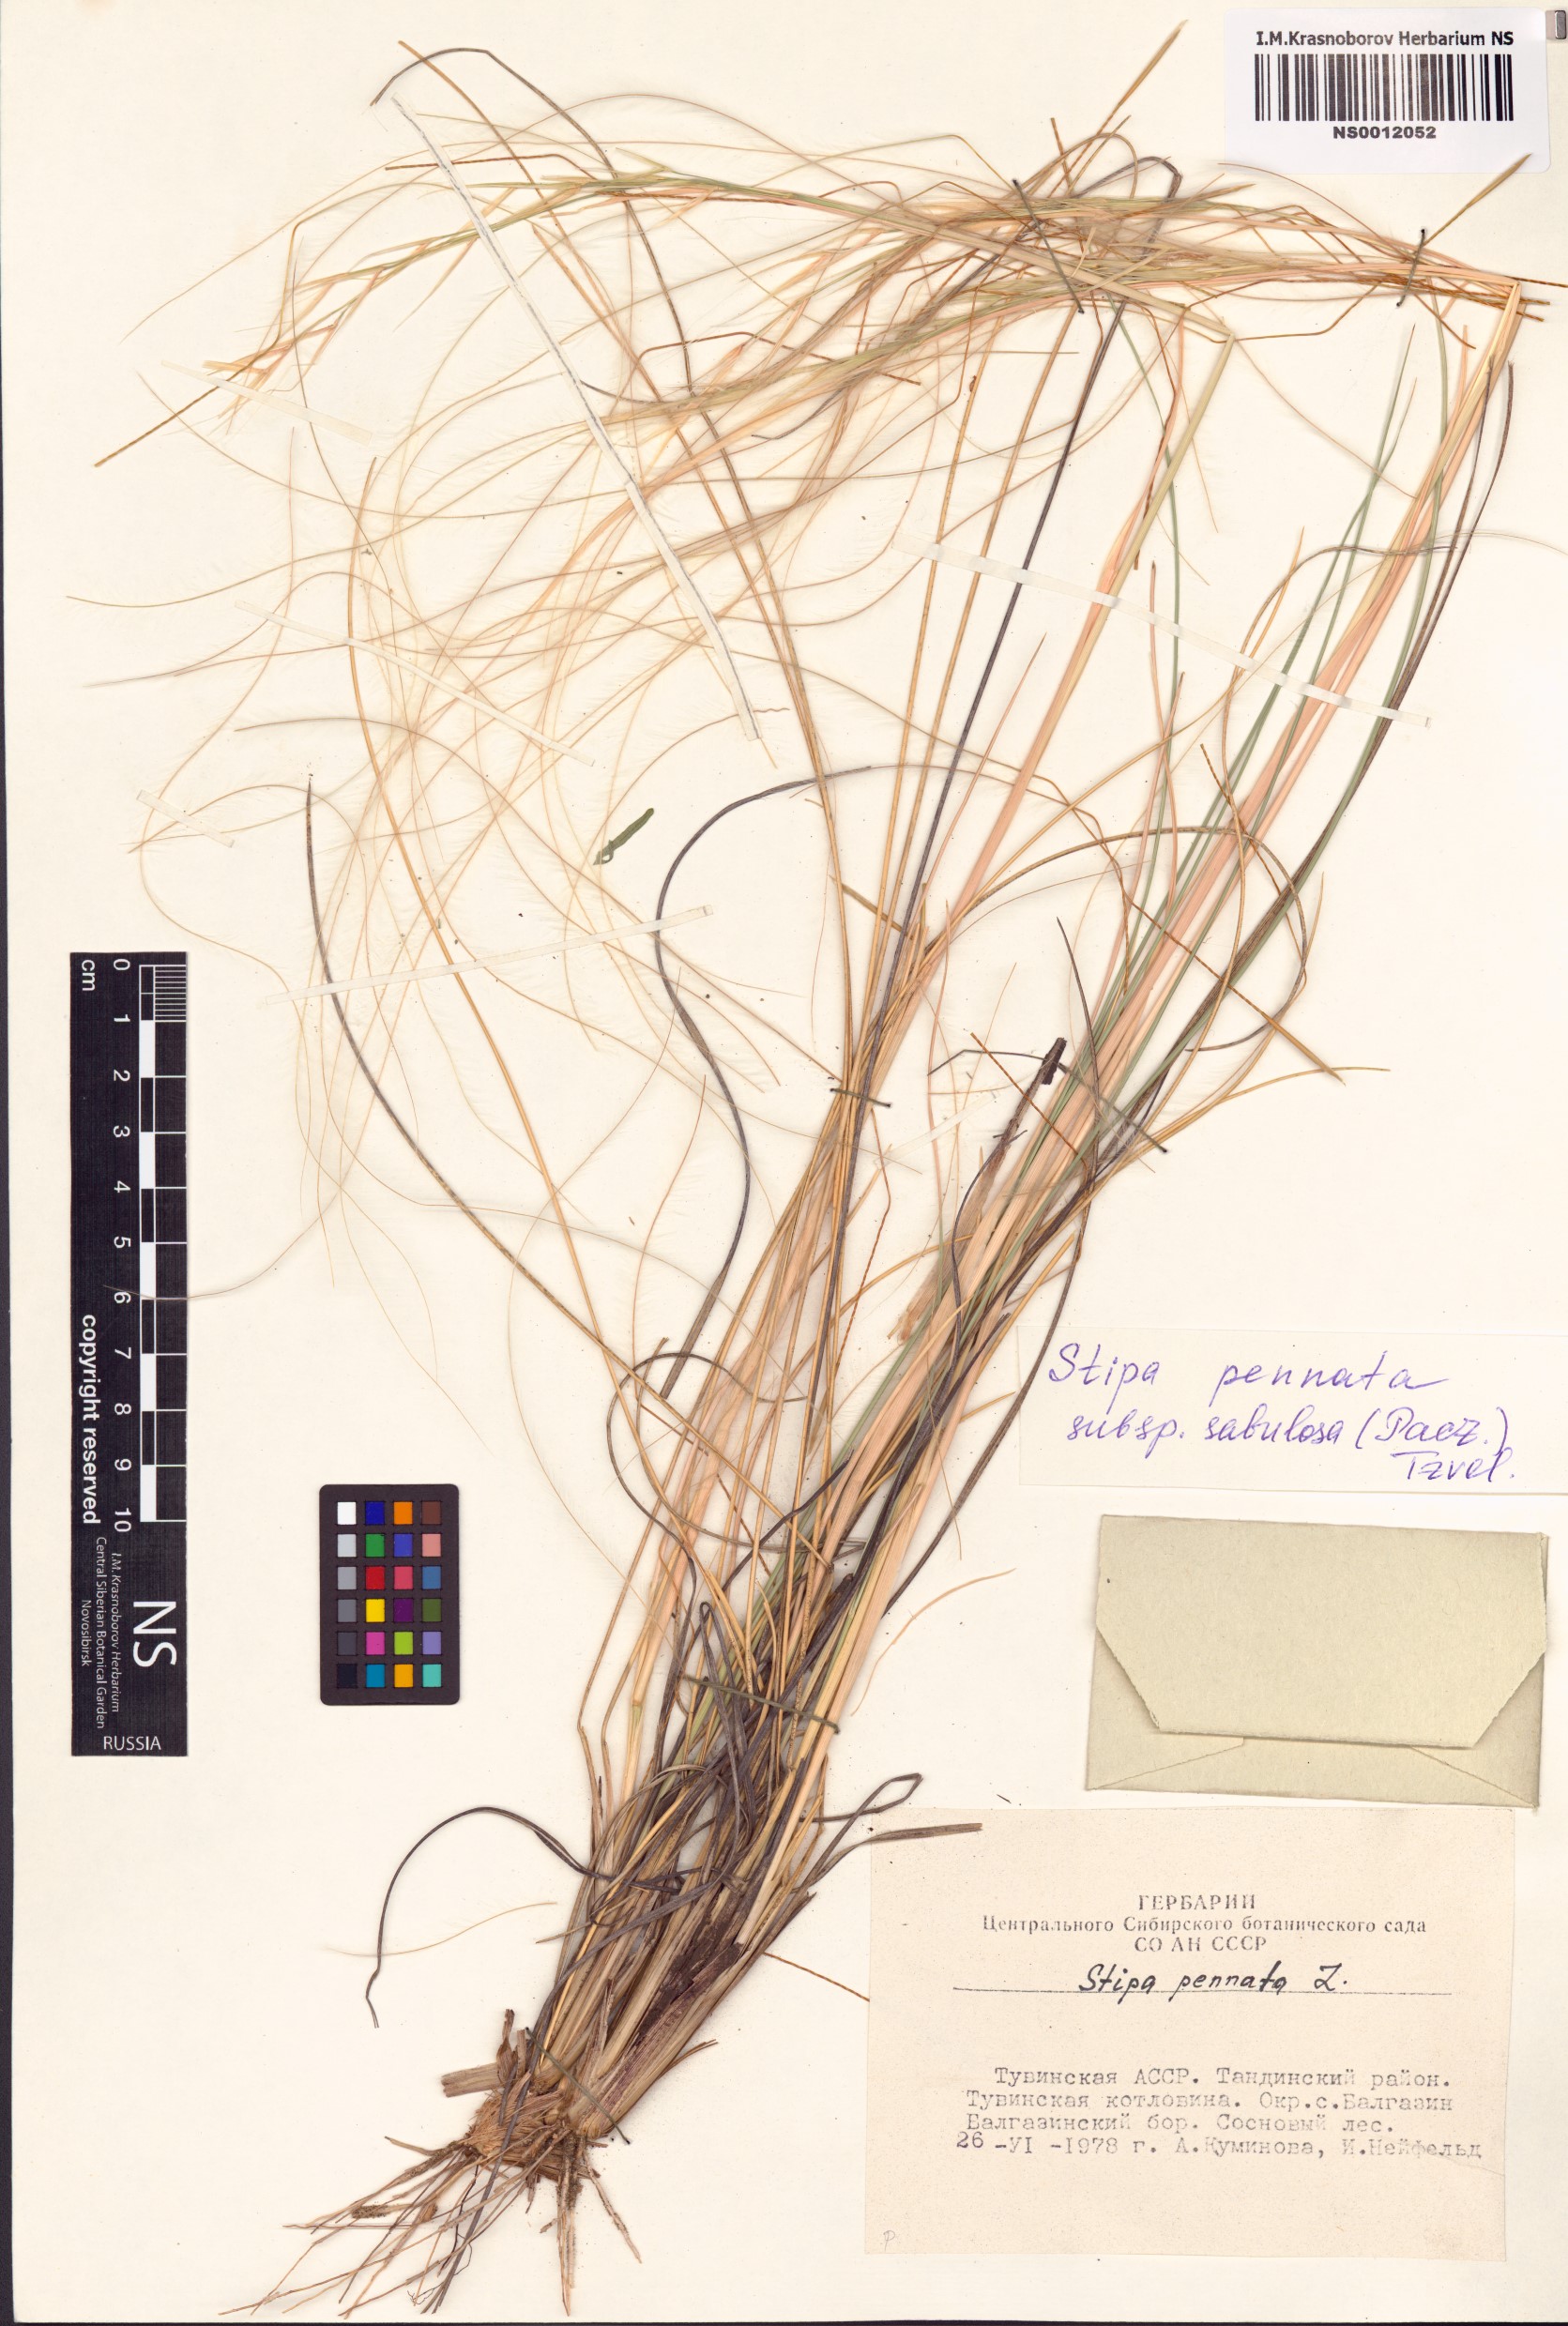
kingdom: Plantae
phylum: Tracheophyta
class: Liliopsida
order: Poales
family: Poaceae
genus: Stipa
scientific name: Stipa borysthenica
